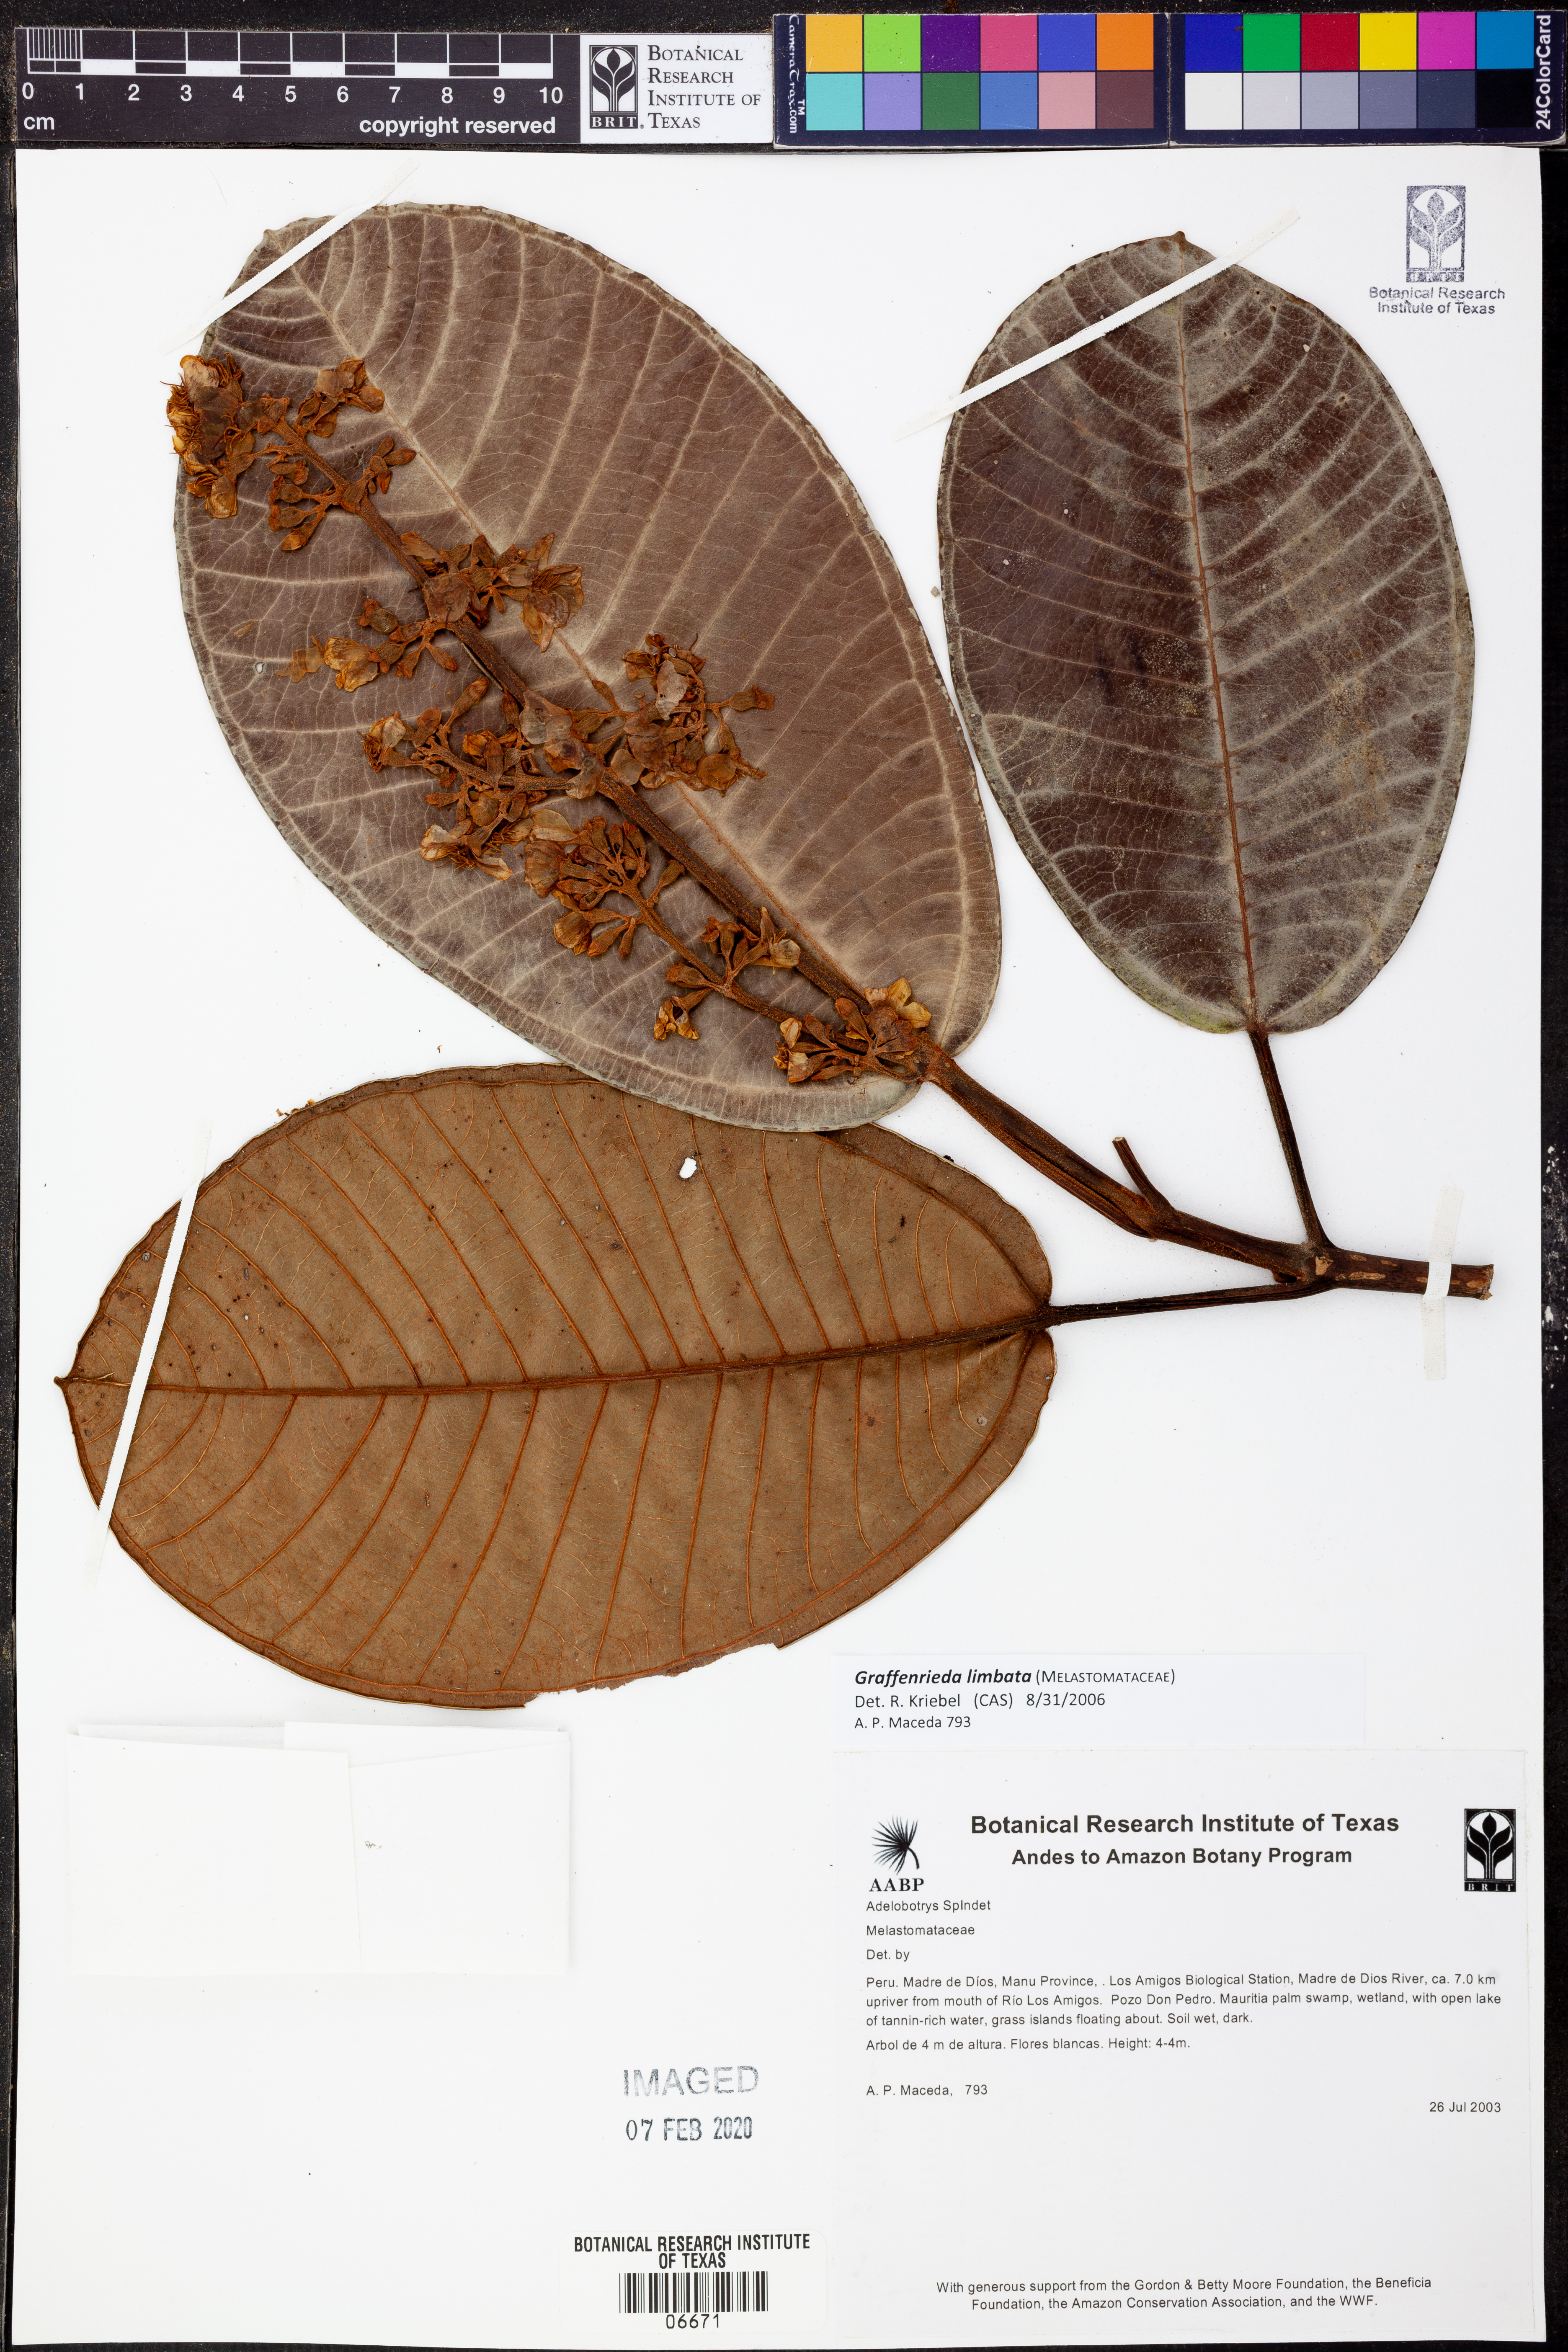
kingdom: Plantae
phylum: Tracheophyta
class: Magnoliopsida
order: Myrtales
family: Melastomataceae
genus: Graffenrieda
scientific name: Graffenrieda limbata
